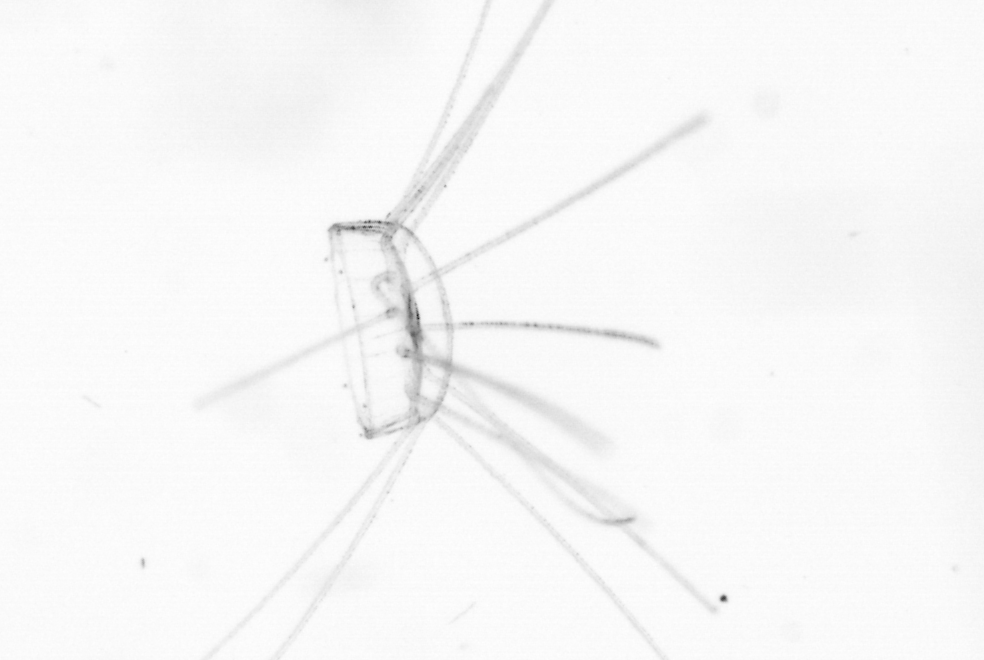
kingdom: Chromista
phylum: Ochrophyta
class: Bacillariophyceae
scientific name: Bacillariophyceae
